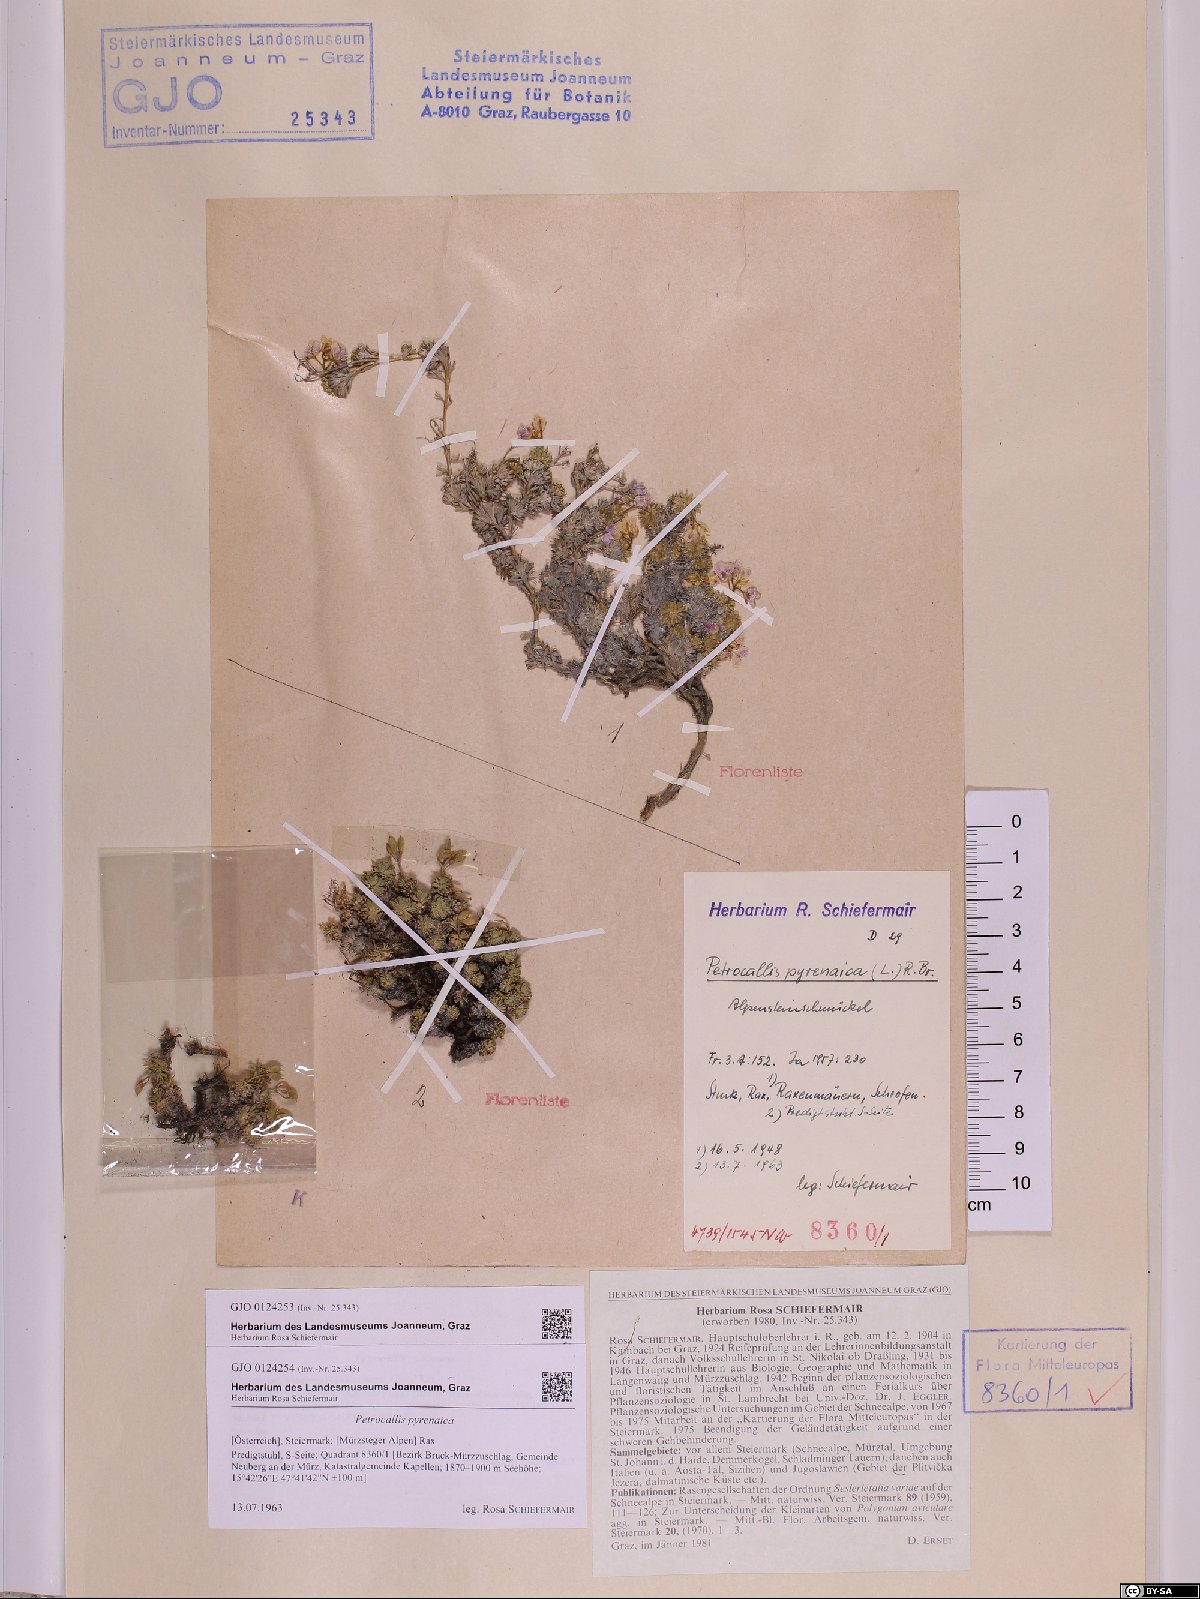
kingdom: Plantae
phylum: Tracheophyta
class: Magnoliopsida
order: Brassicales
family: Brassicaceae
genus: Petrocallis
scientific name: Petrocallis pyrenaica
